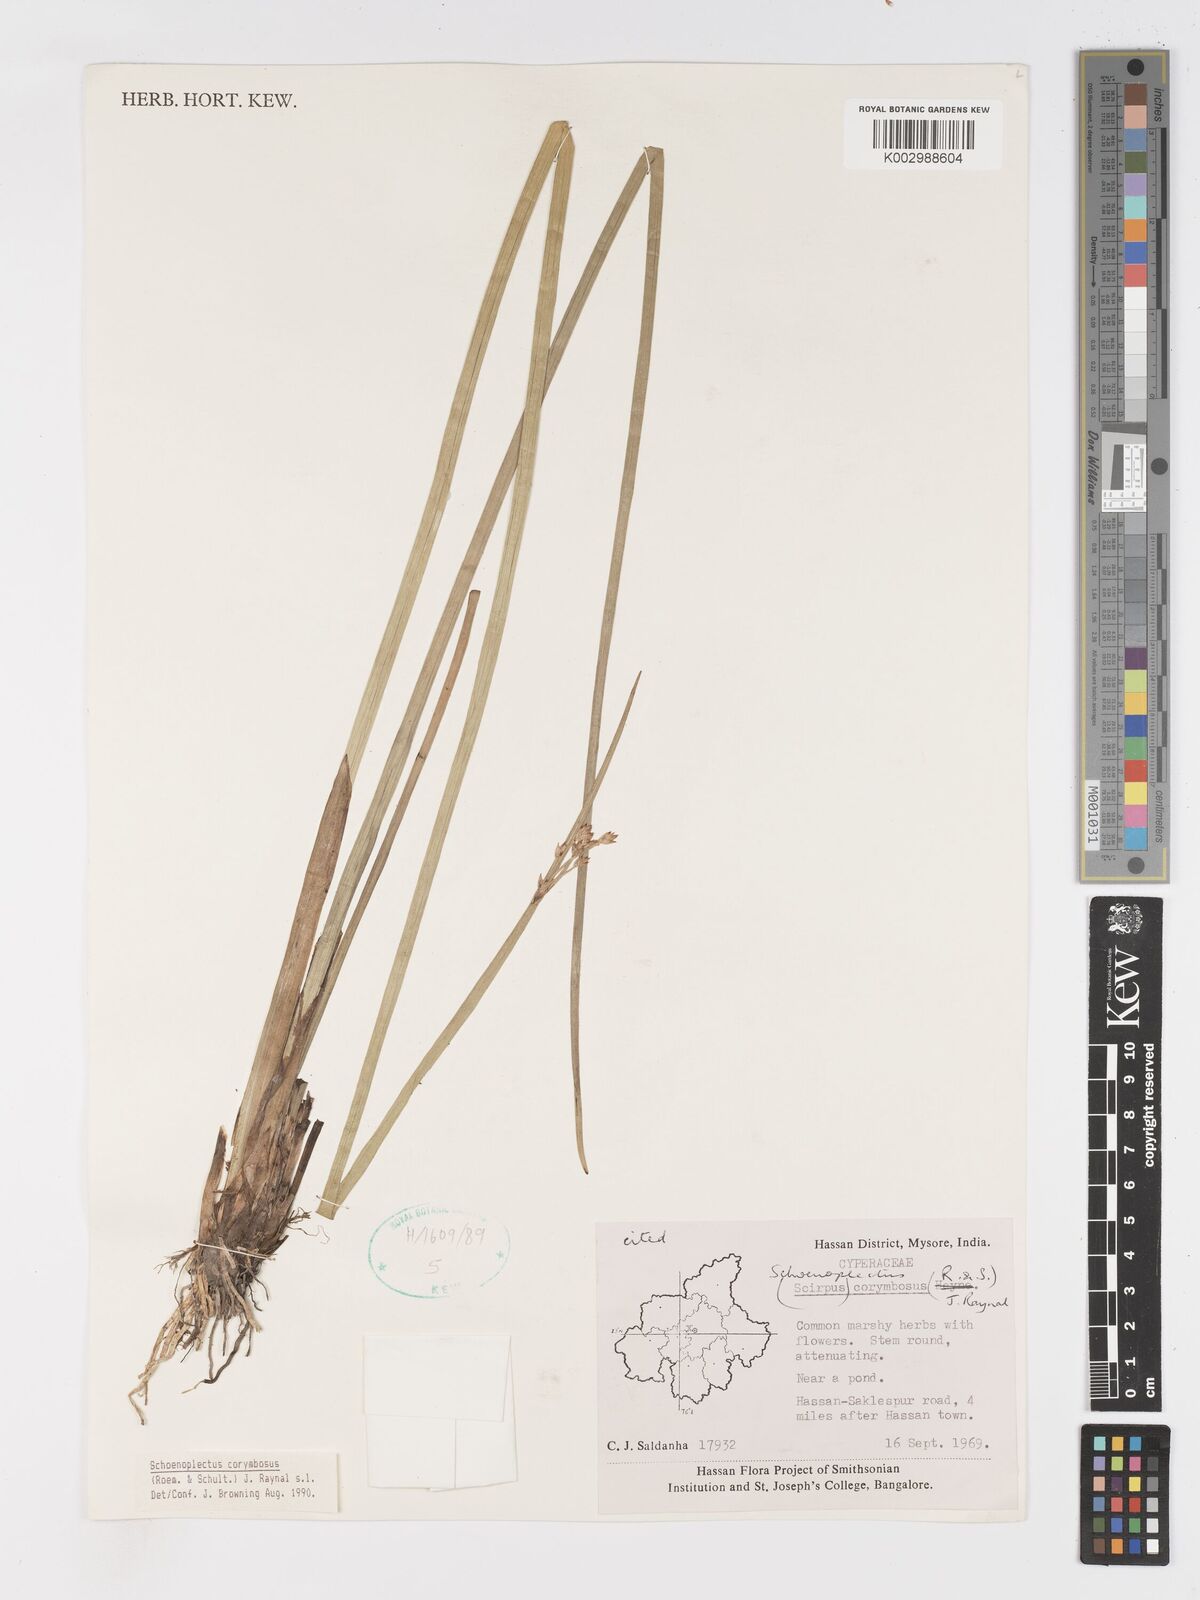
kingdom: Plantae
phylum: Tracheophyta
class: Liliopsida
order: Poales
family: Cyperaceae
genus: Schoenoplectiella
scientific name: Schoenoplectiella corymbosa
